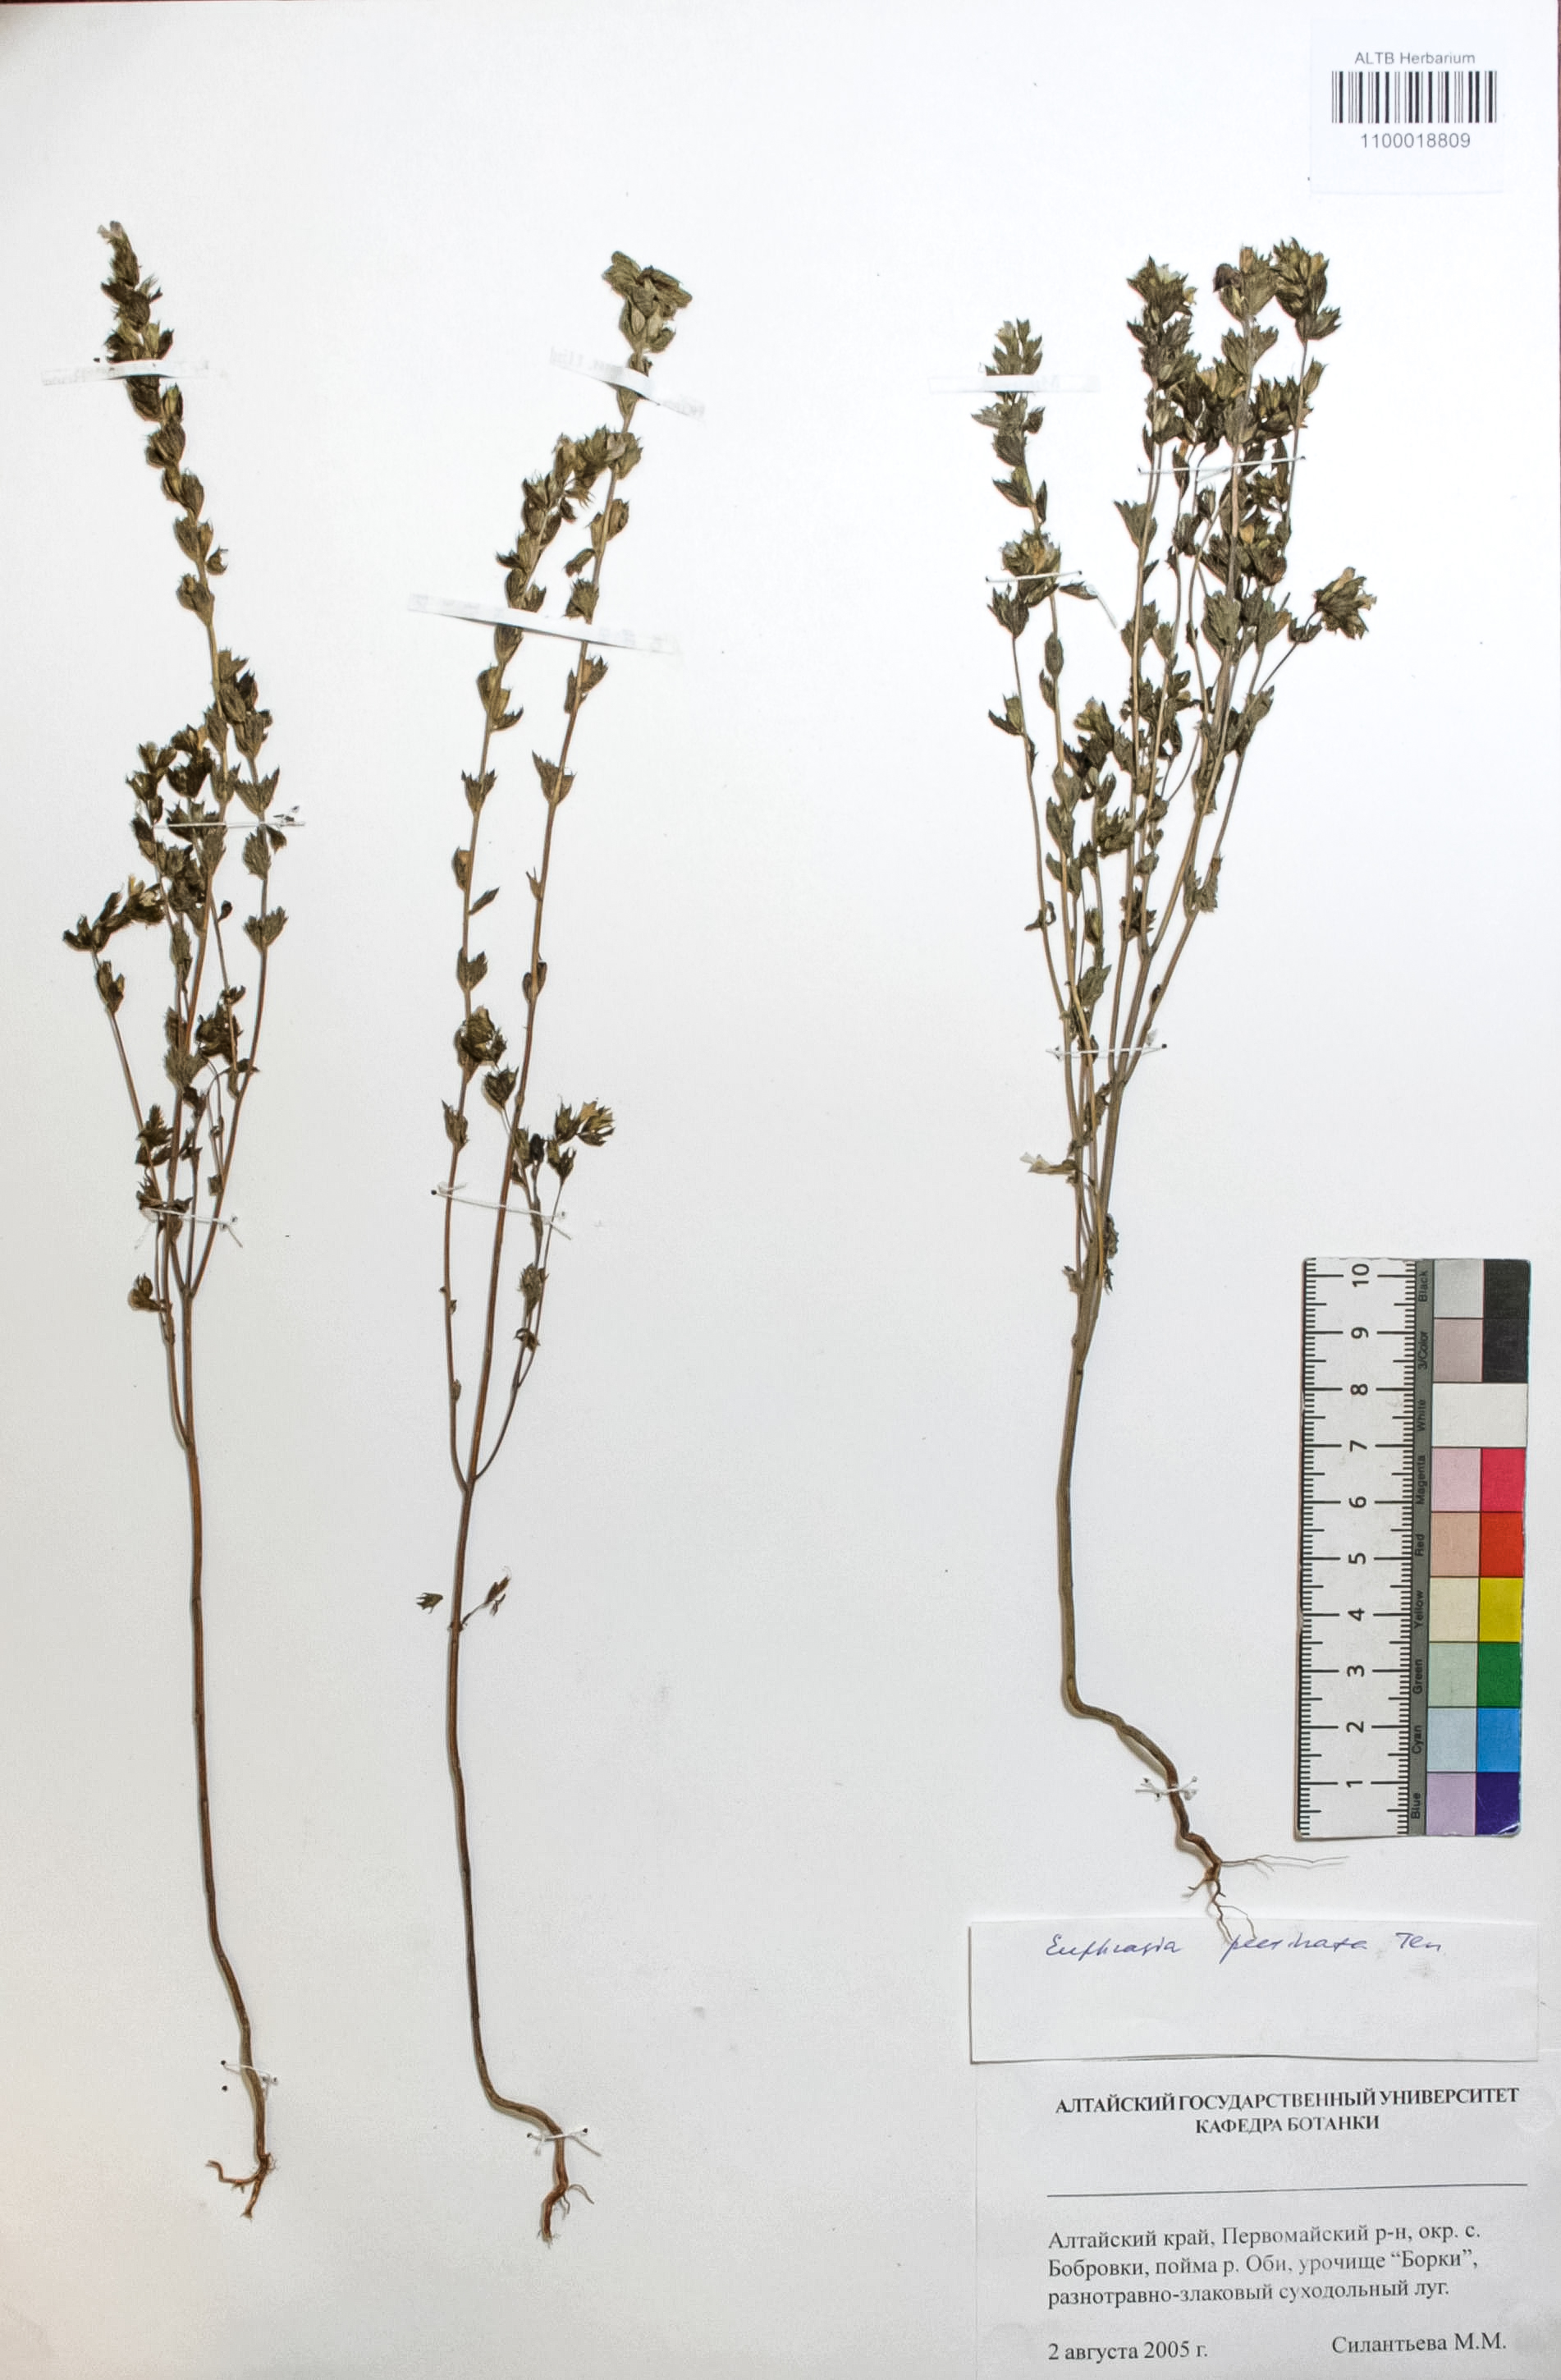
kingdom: Plantae
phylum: Tracheophyta
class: Magnoliopsida
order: Lamiales
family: Orobanchaceae
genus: Euphrasia
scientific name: Euphrasia pectinata
